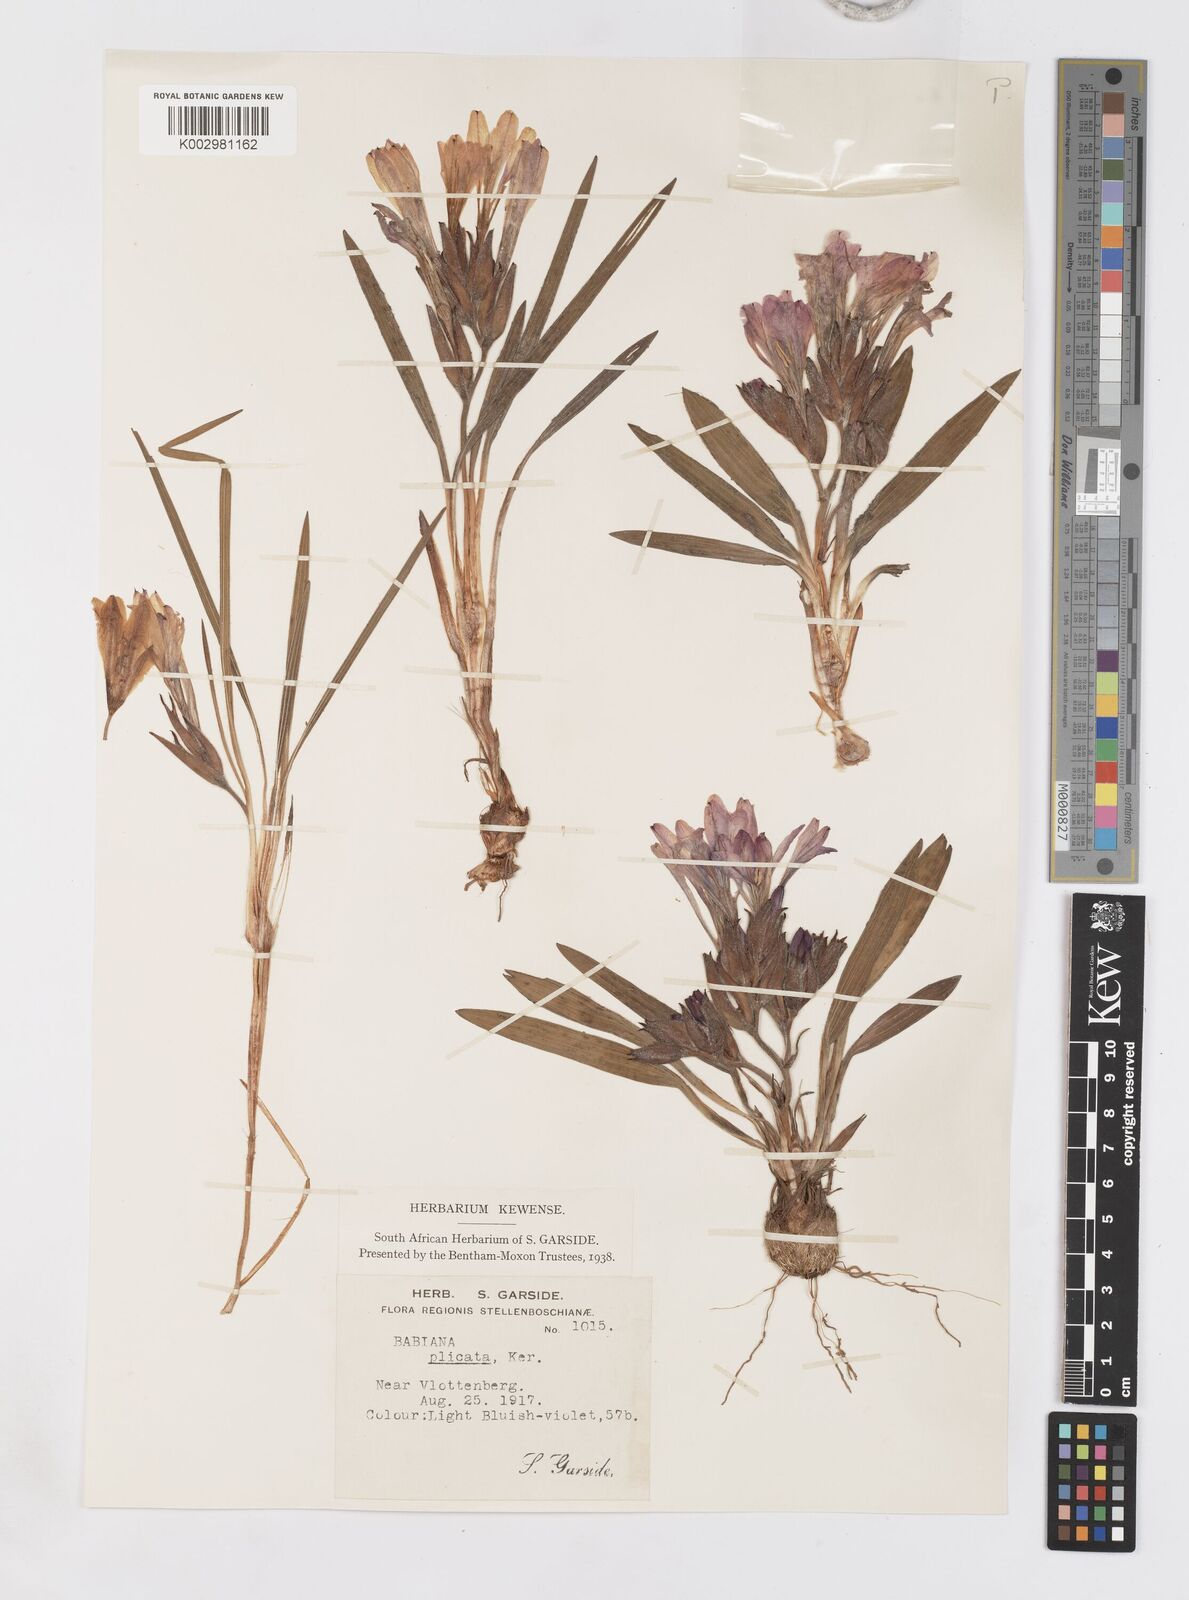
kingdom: Plantae
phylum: Tracheophyta
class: Liliopsida
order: Asparagales
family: Iridaceae
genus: Babiana
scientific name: Babiana
